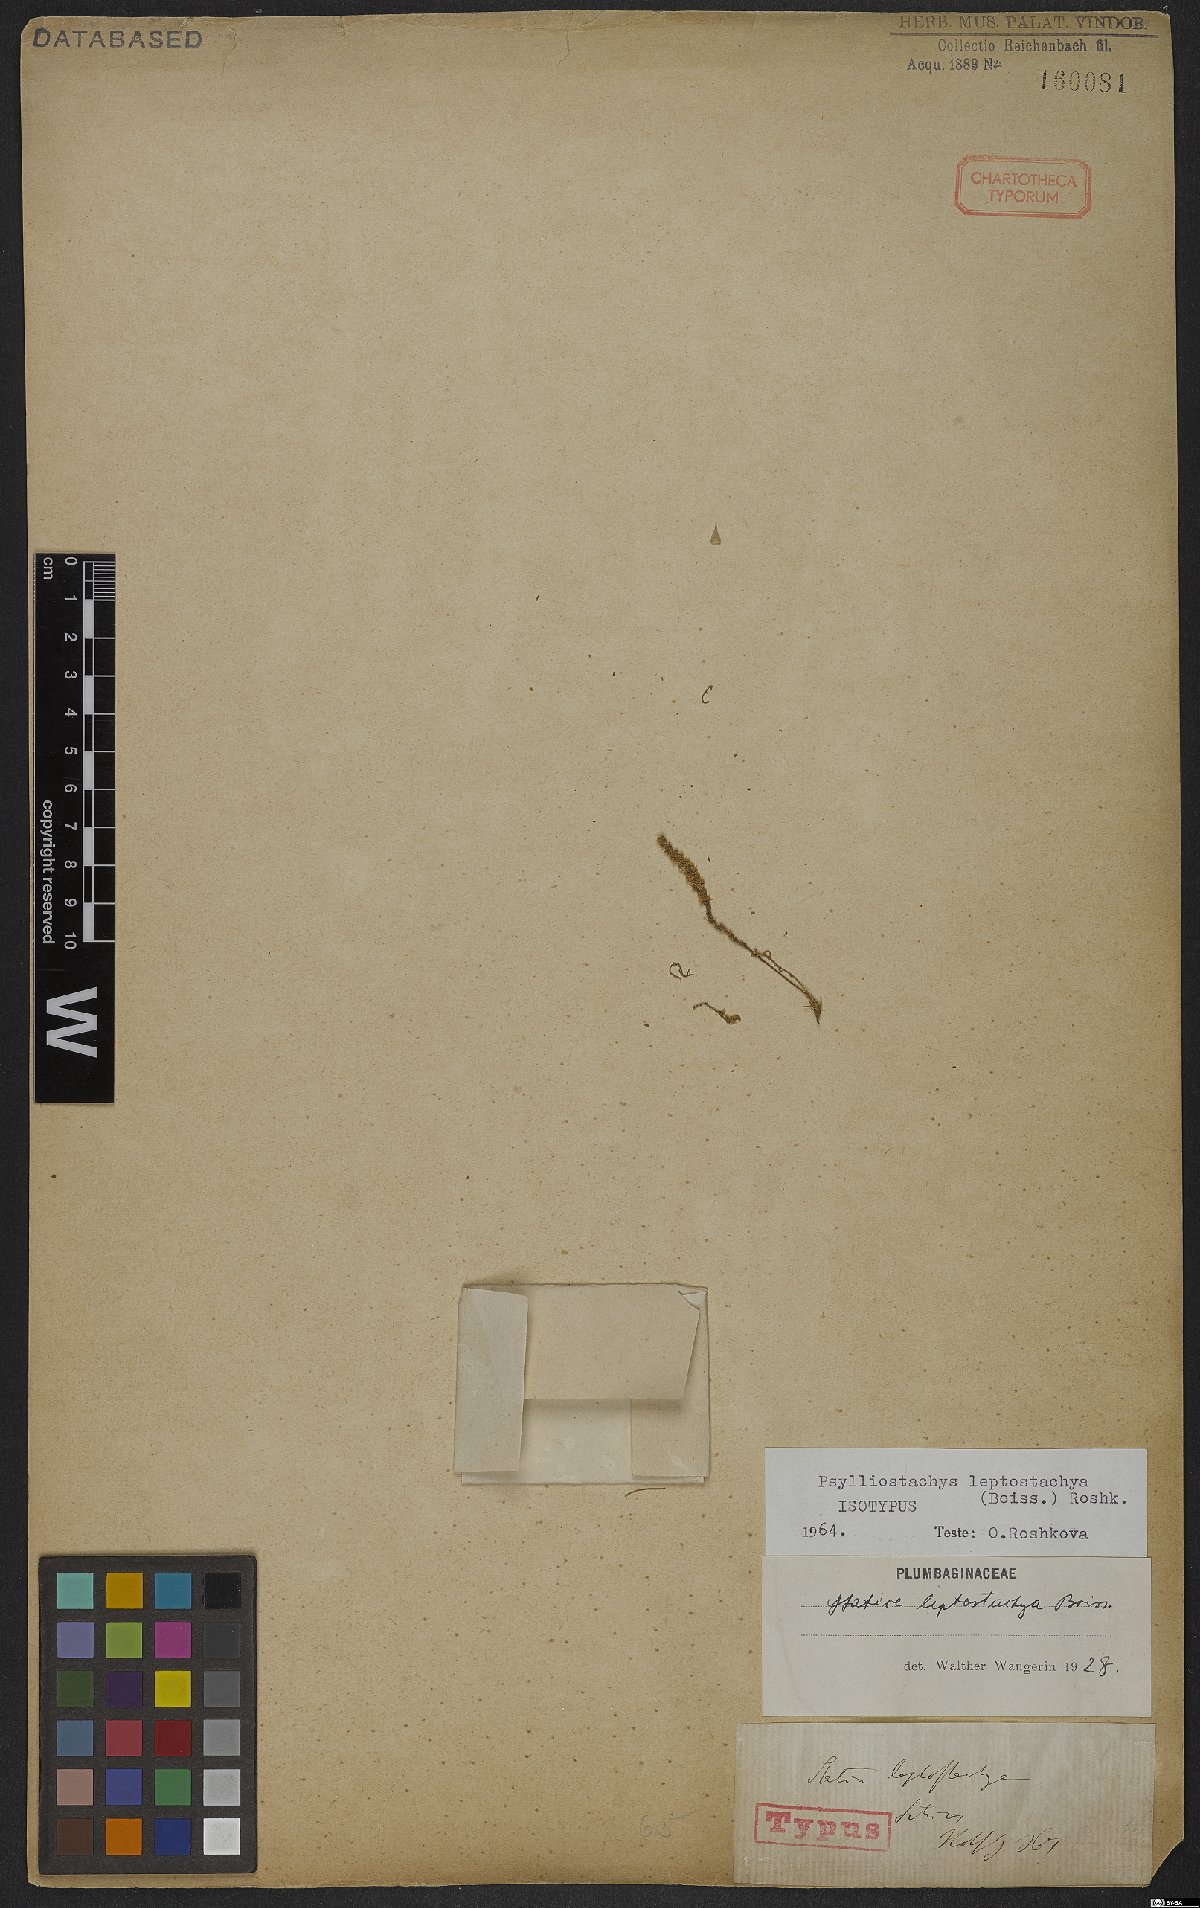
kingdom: Plantae
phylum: Tracheophyta
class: Magnoliopsida
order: Caryophyllales
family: Plumbaginaceae
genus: Psylliostachys
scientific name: Psylliostachys leptostachyus
